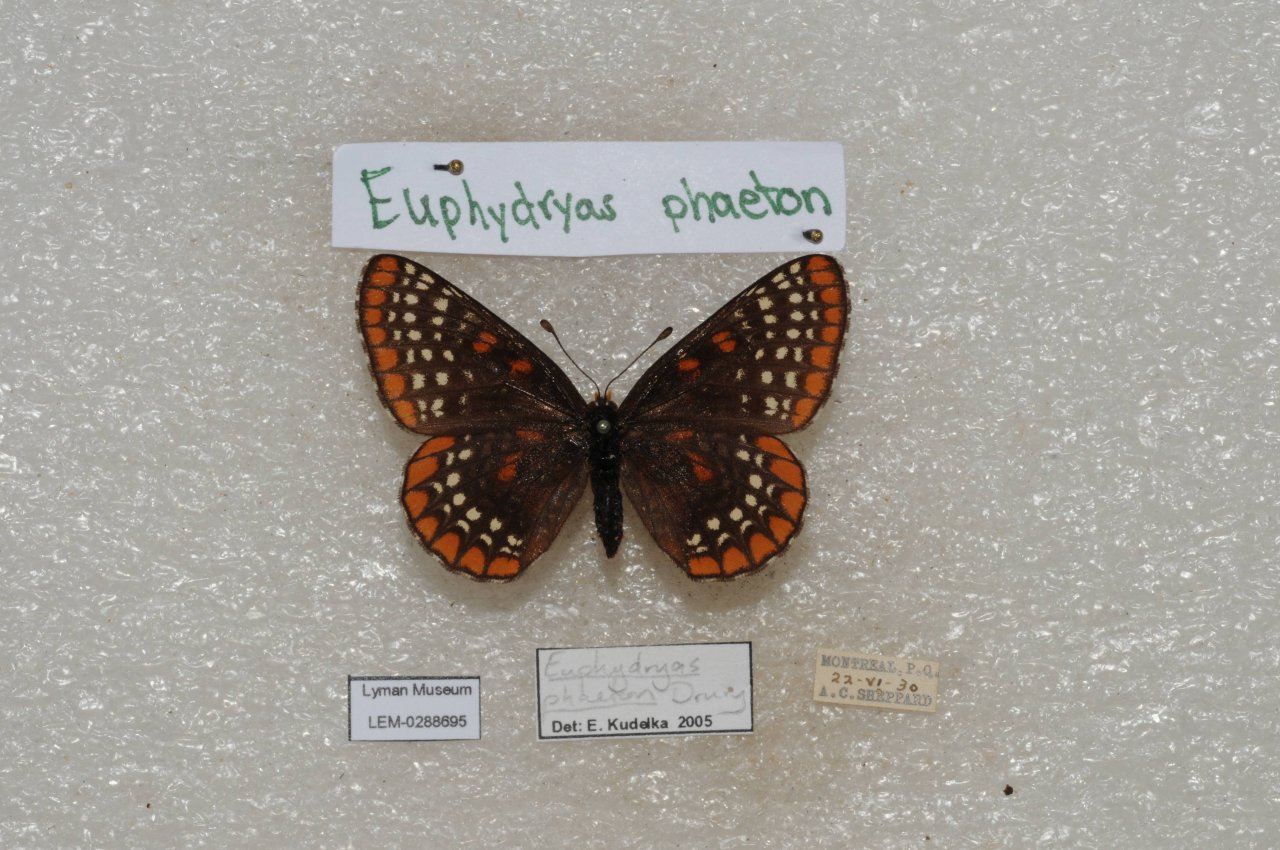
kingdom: Animalia
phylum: Arthropoda
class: Insecta
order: Lepidoptera
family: Nymphalidae
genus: Euphydryas
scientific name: Euphydryas phaeton
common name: Baltimore Checkerspot
